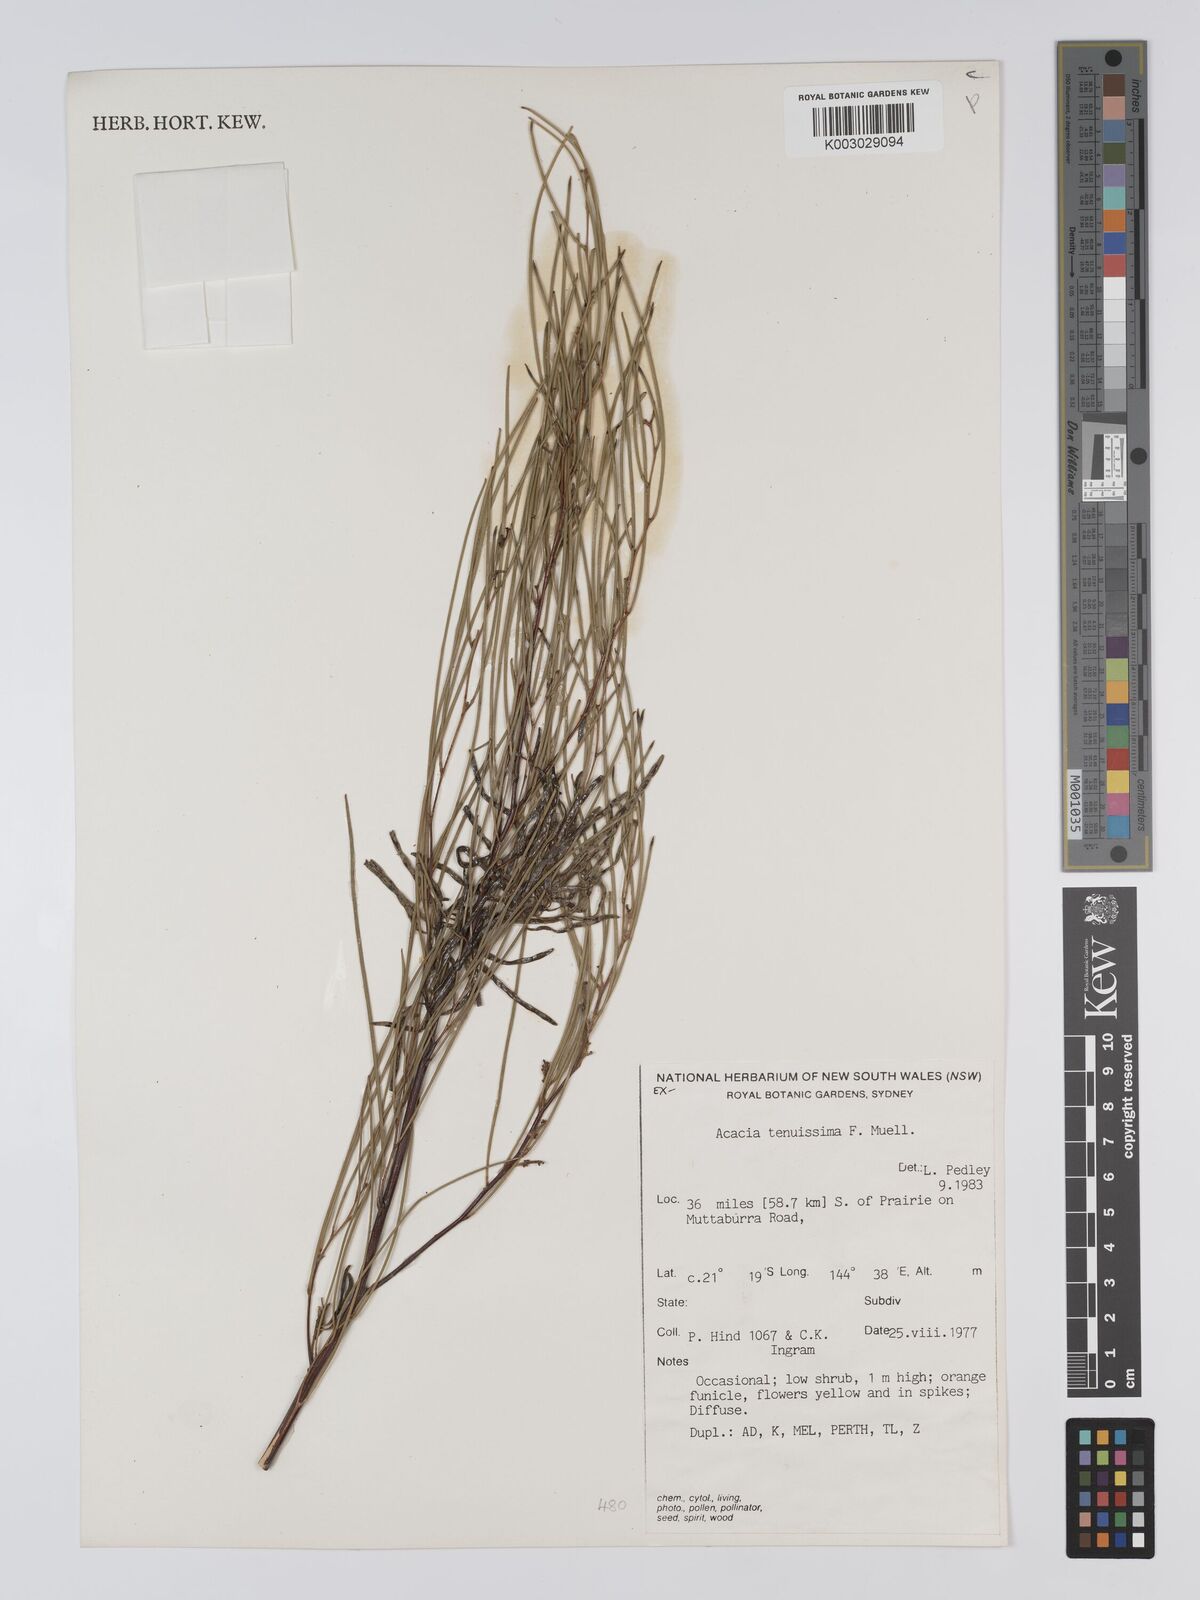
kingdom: Plantae
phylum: Tracheophyta
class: Magnoliopsida
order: Fabales
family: Fabaceae
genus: Acacia
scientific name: Acacia tenuissima
